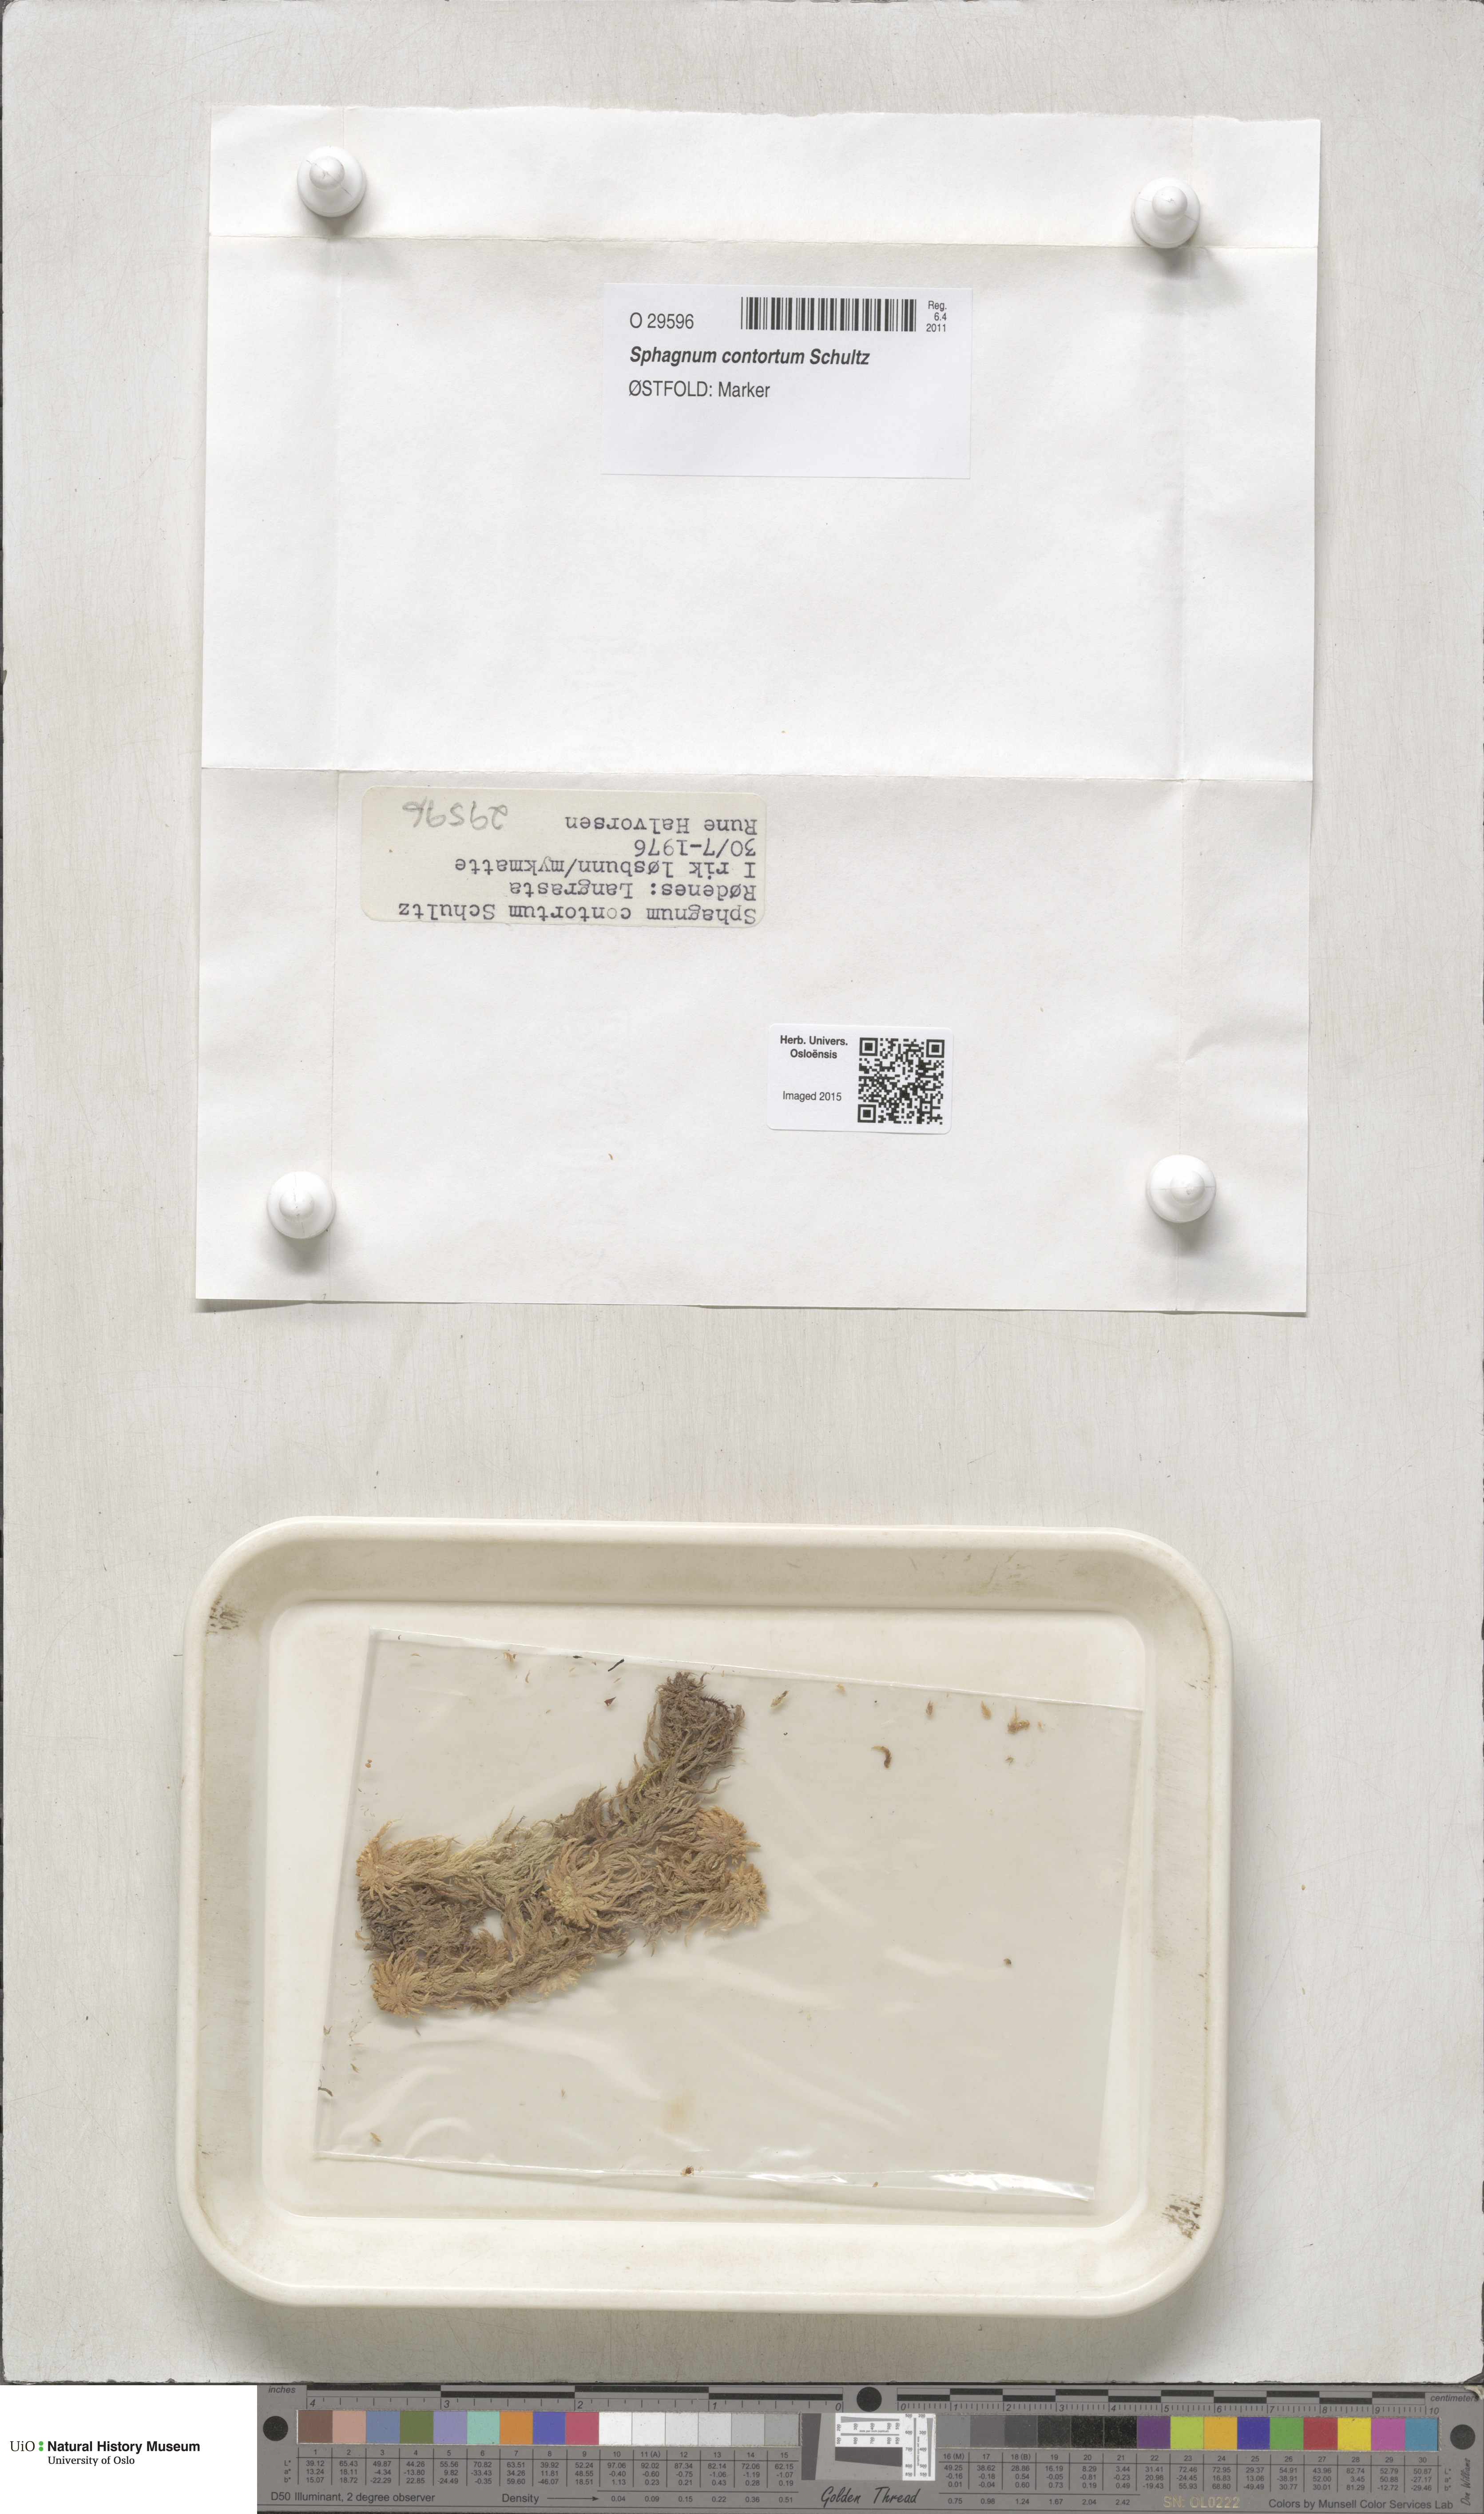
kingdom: Plantae
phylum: Bryophyta
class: Sphagnopsida
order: Sphagnales
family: Sphagnaceae
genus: Sphagnum
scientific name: Sphagnum contortum
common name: Twisted peat moss
